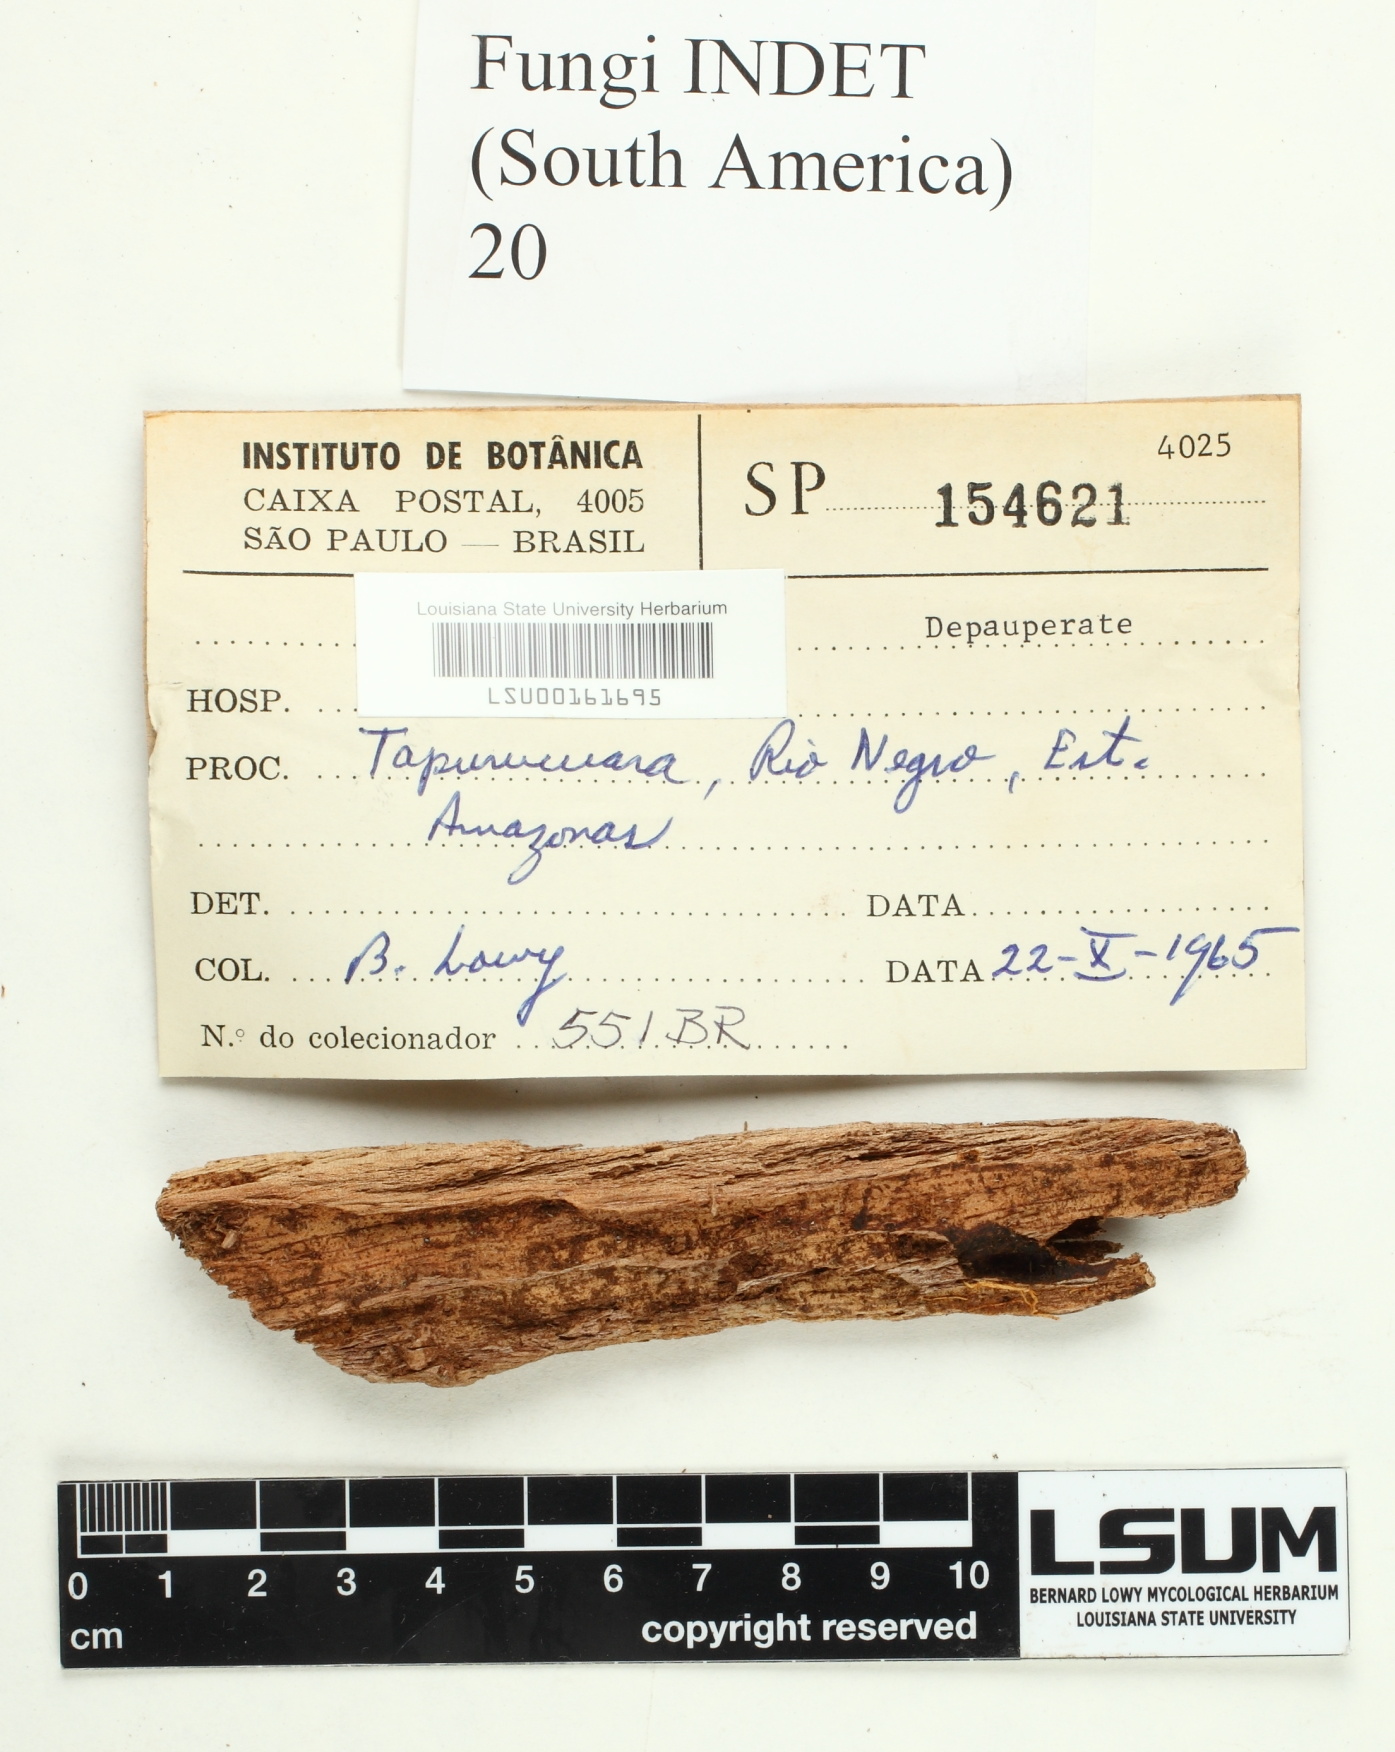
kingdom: Fungi
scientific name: Fungi
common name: Fungi
